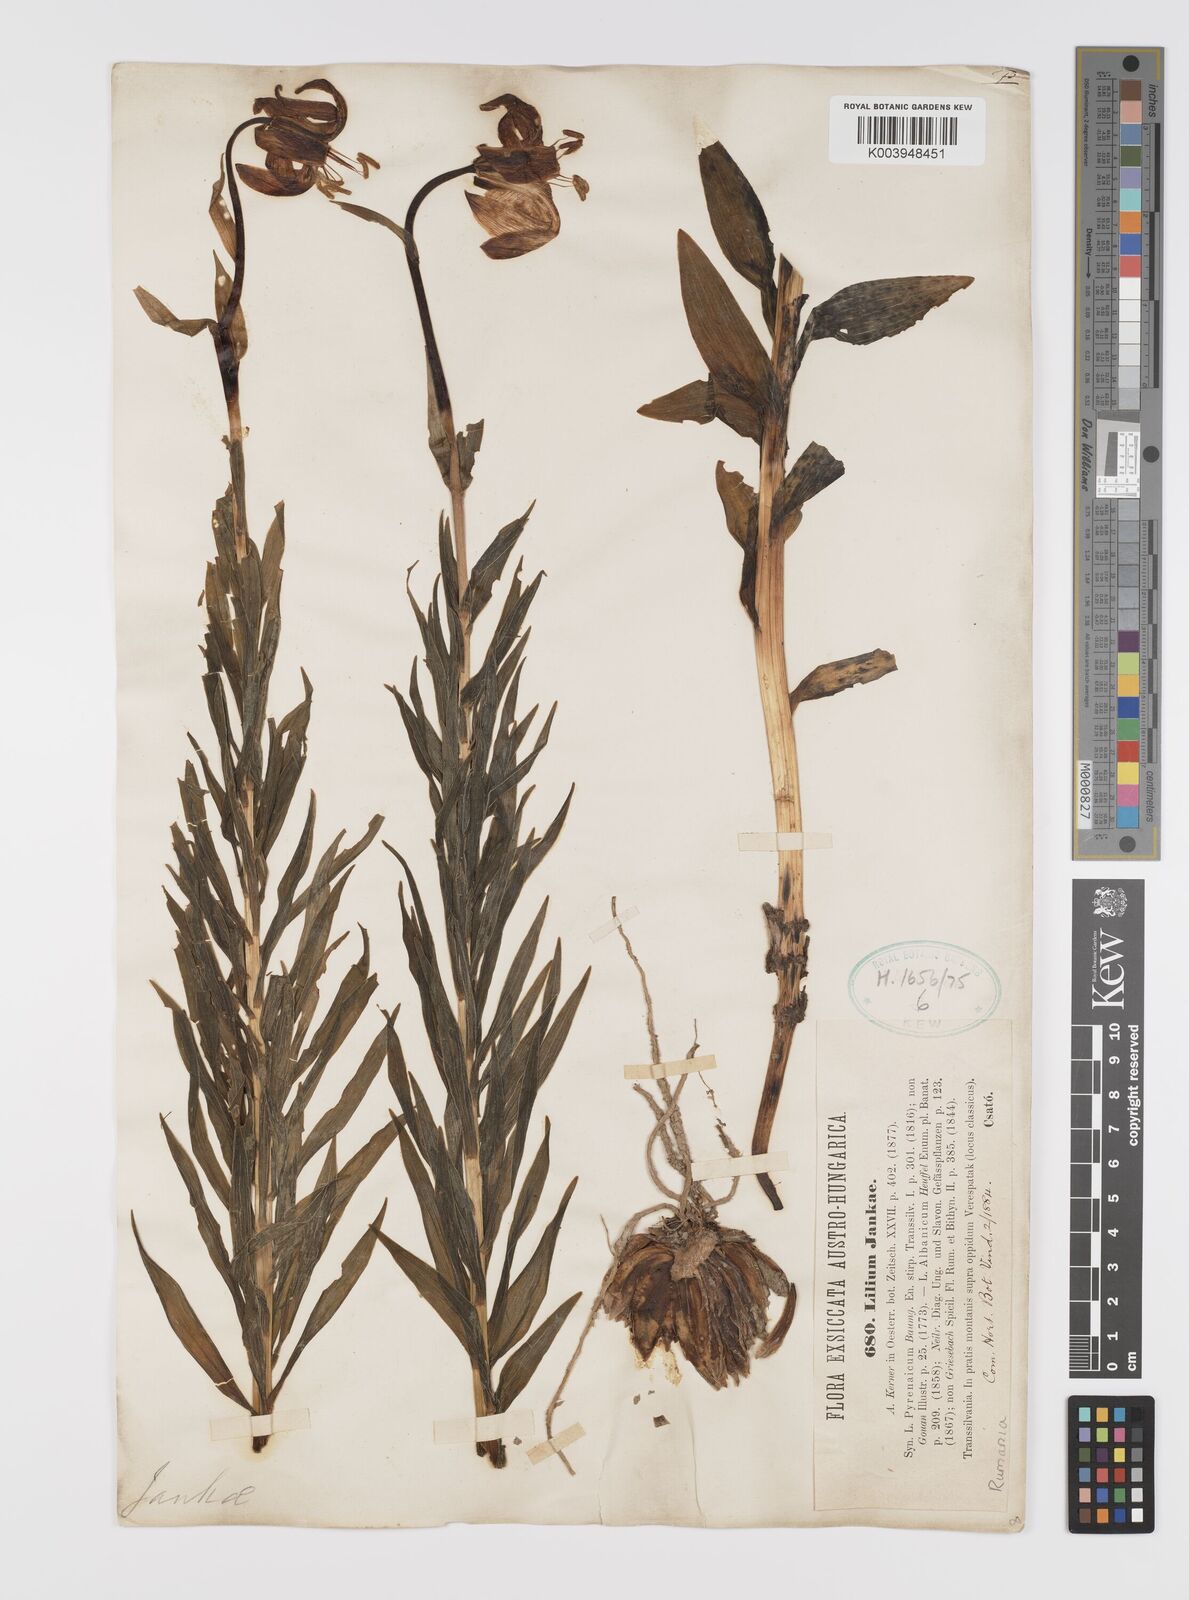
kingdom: Plantae
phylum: Tracheophyta
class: Liliopsida
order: Liliales
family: Liliaceae
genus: Lilium
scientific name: Lilium jankae
